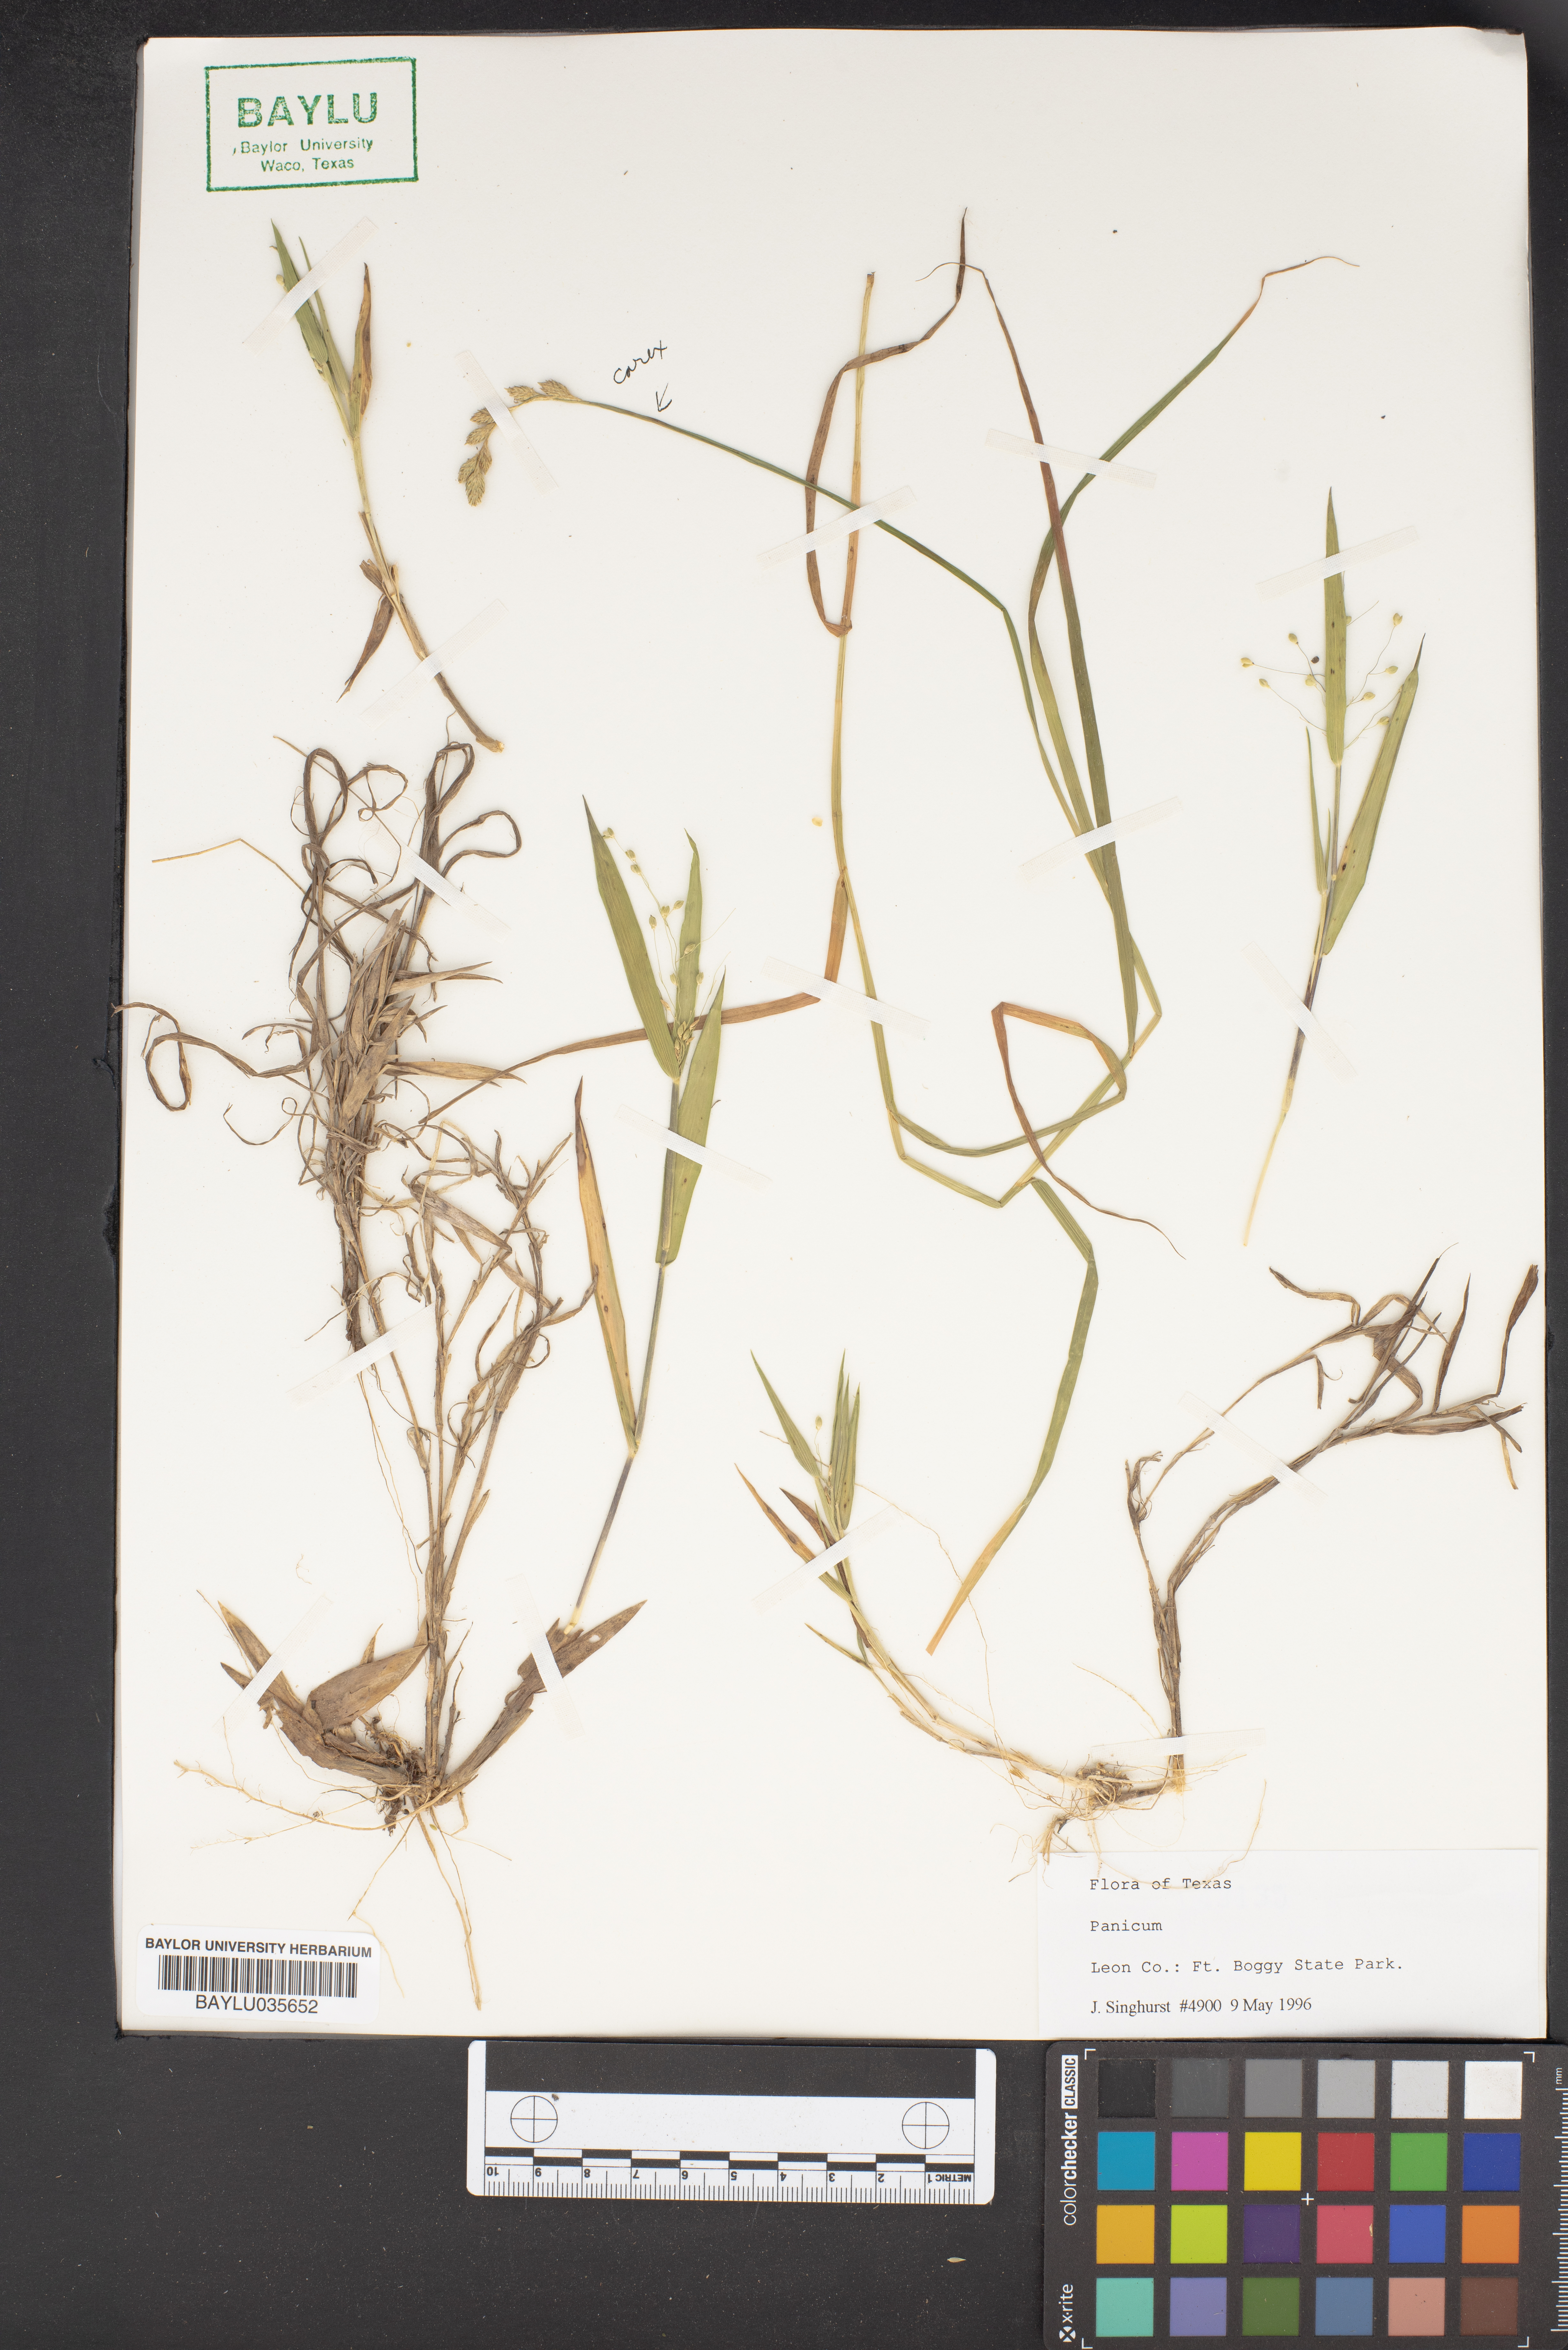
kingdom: Plantae
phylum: Tracheophyta
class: Liliopsida
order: Poales
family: Poaceae
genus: Panicum
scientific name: Panicum
